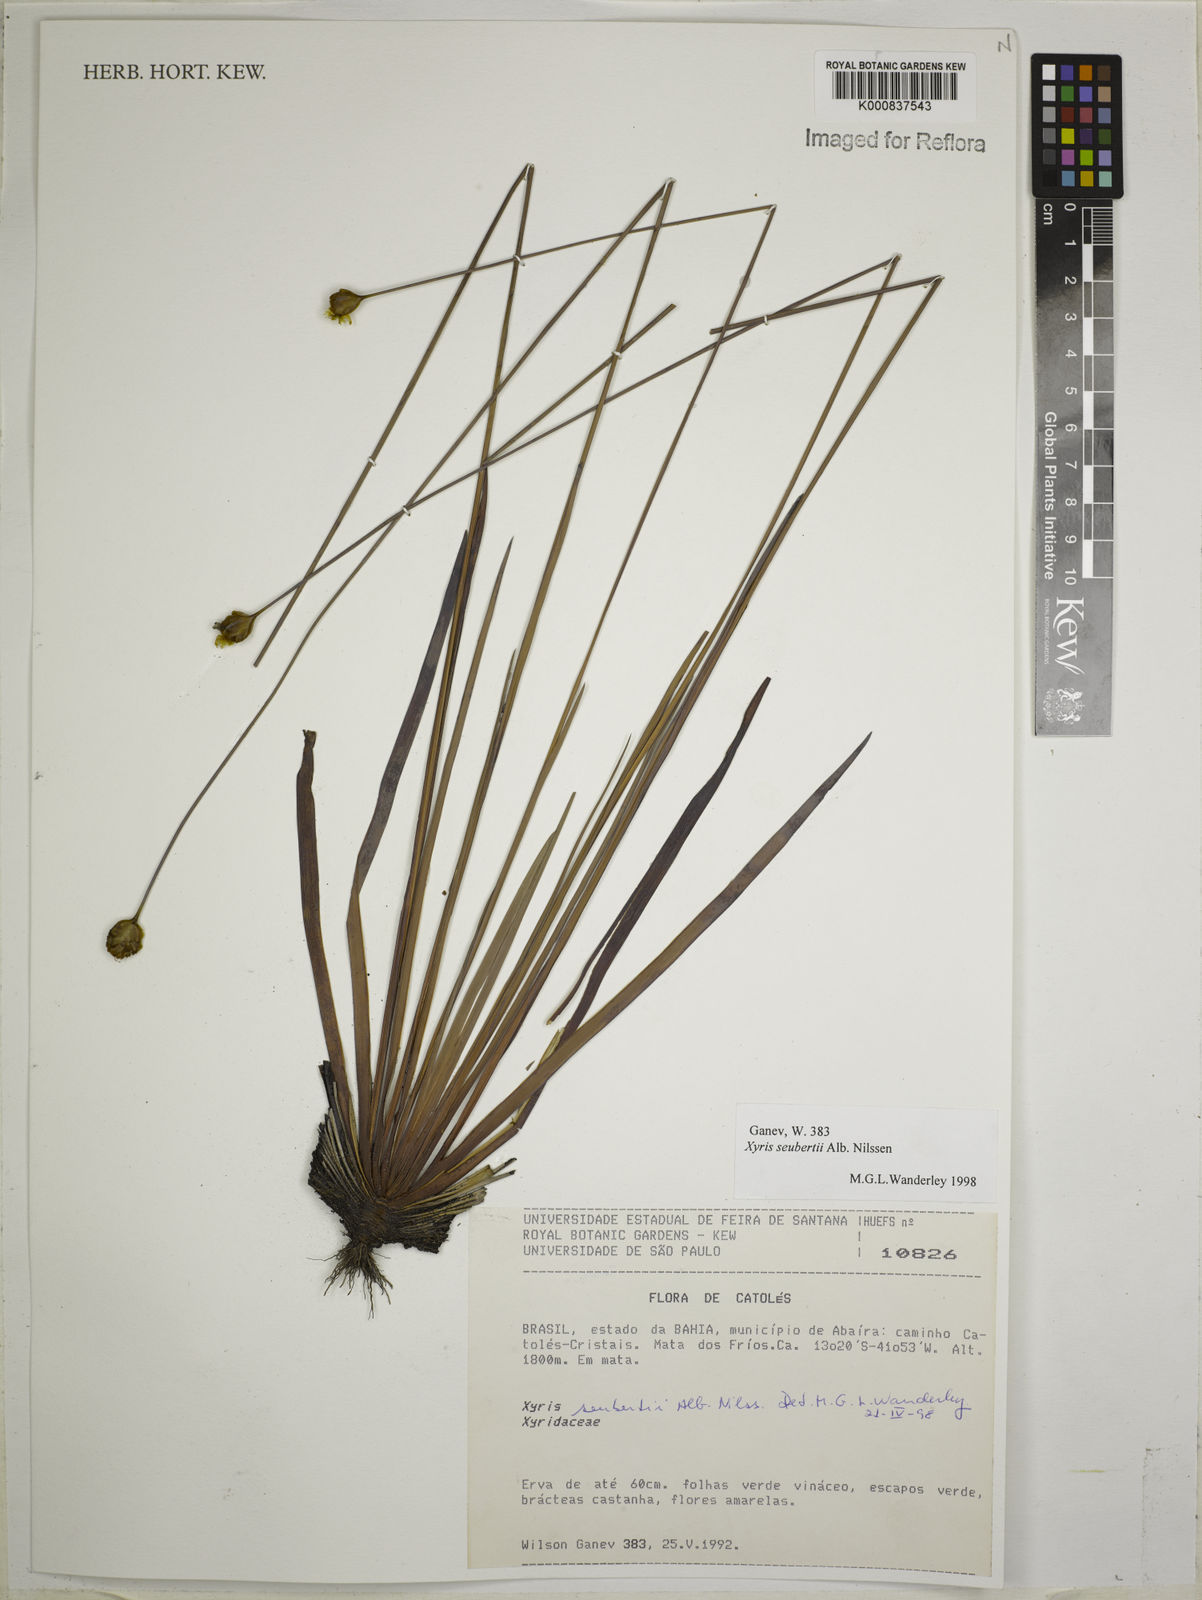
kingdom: Plantae
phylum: Tracheophyta
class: Liliopsida
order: Poales
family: Xyridaceae
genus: Xyris
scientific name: Xyris seubertii
